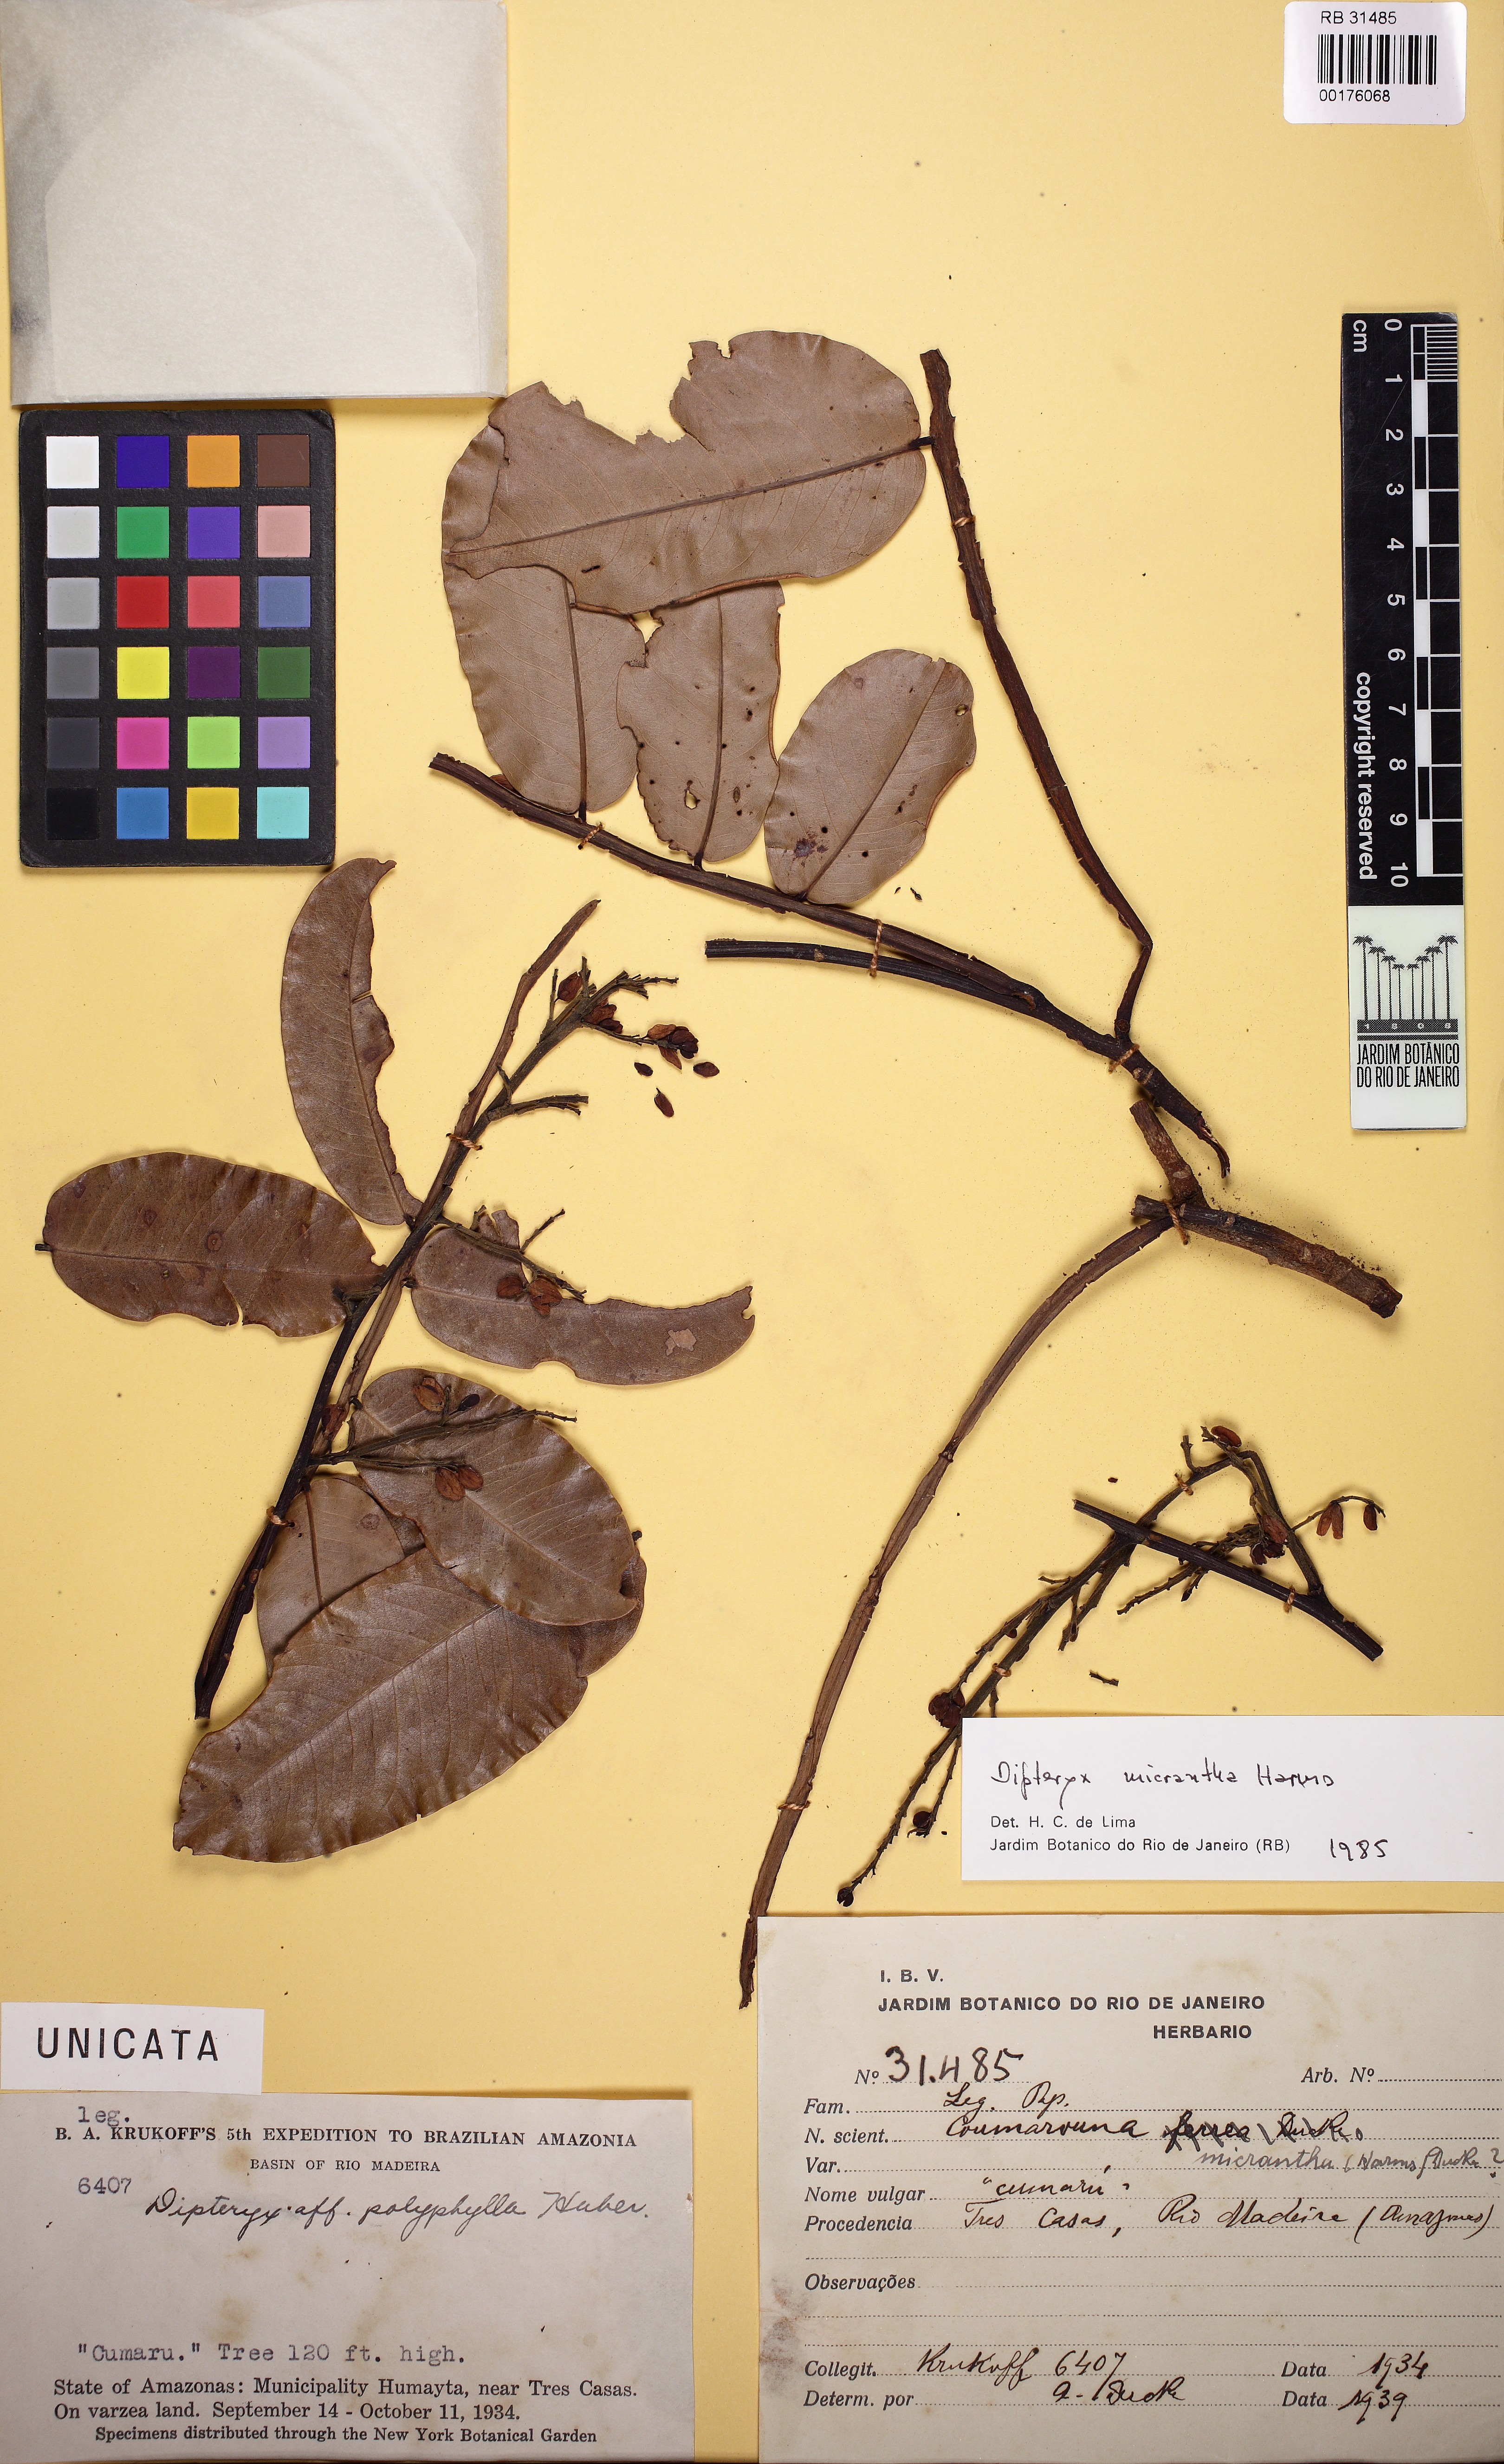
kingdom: Plantae
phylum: Tracheophyta
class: Magnoliopsida
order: Fabales
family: Fabaceae
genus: Dipteryx
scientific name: Dipteryx ferrea
